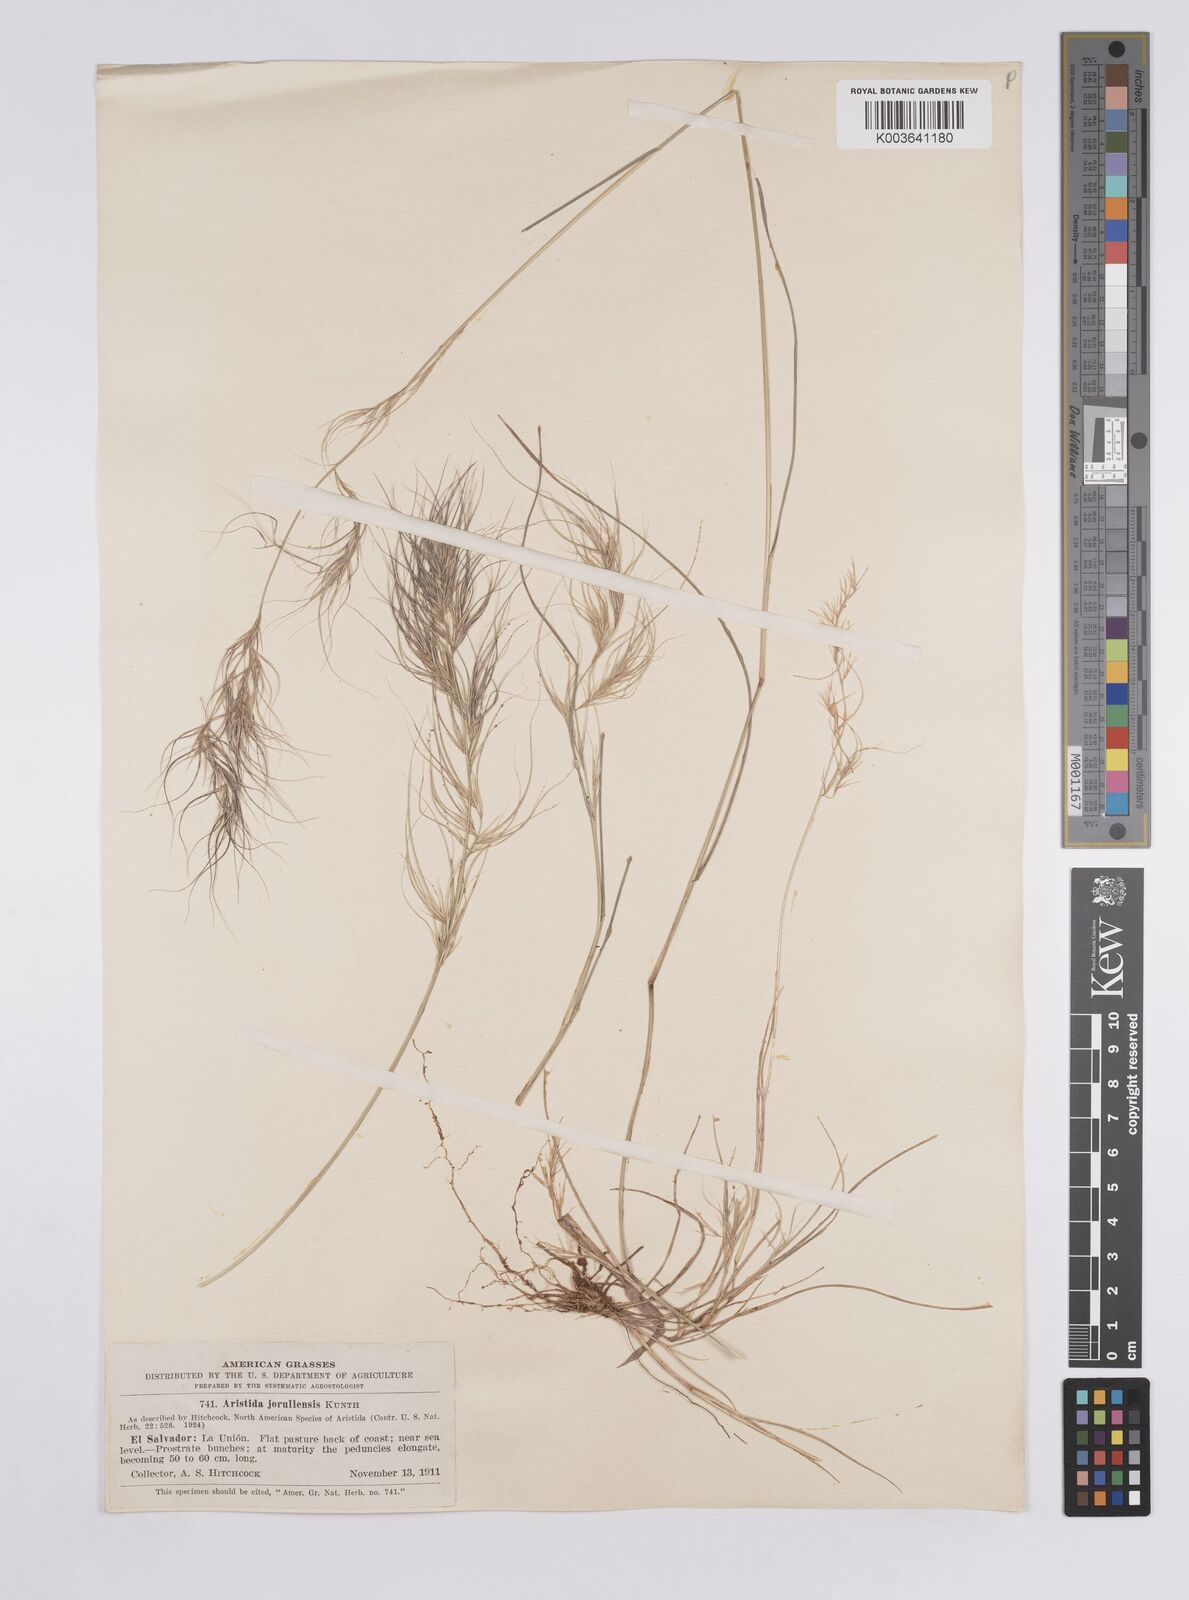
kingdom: Plantae
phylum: Tracheophyta
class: Liliopsida
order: Poales
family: Poaceae
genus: Aristida
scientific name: Aristida jorullensis
